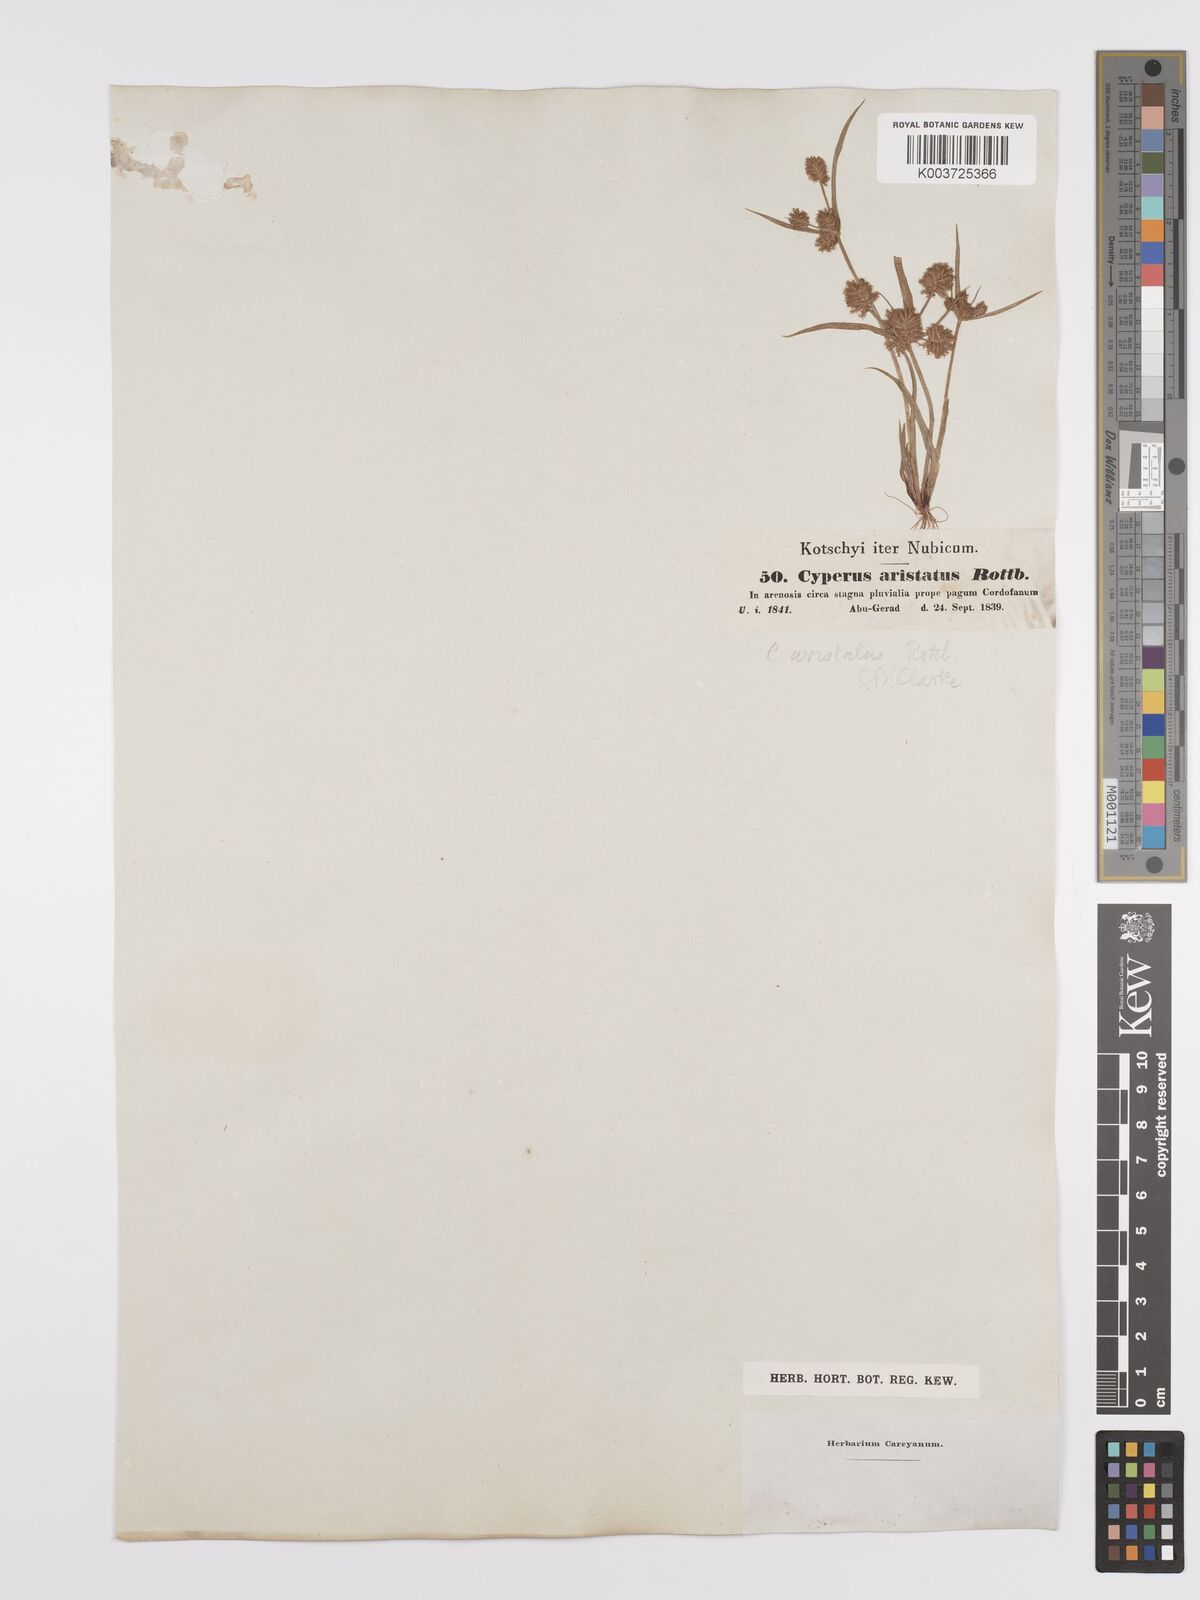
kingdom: Plantae
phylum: Tracheophyta
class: Liliopsida
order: Poales
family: Cyperaceae
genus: Cyperus
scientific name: Cyperus squarrosus
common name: Awned cyperus
